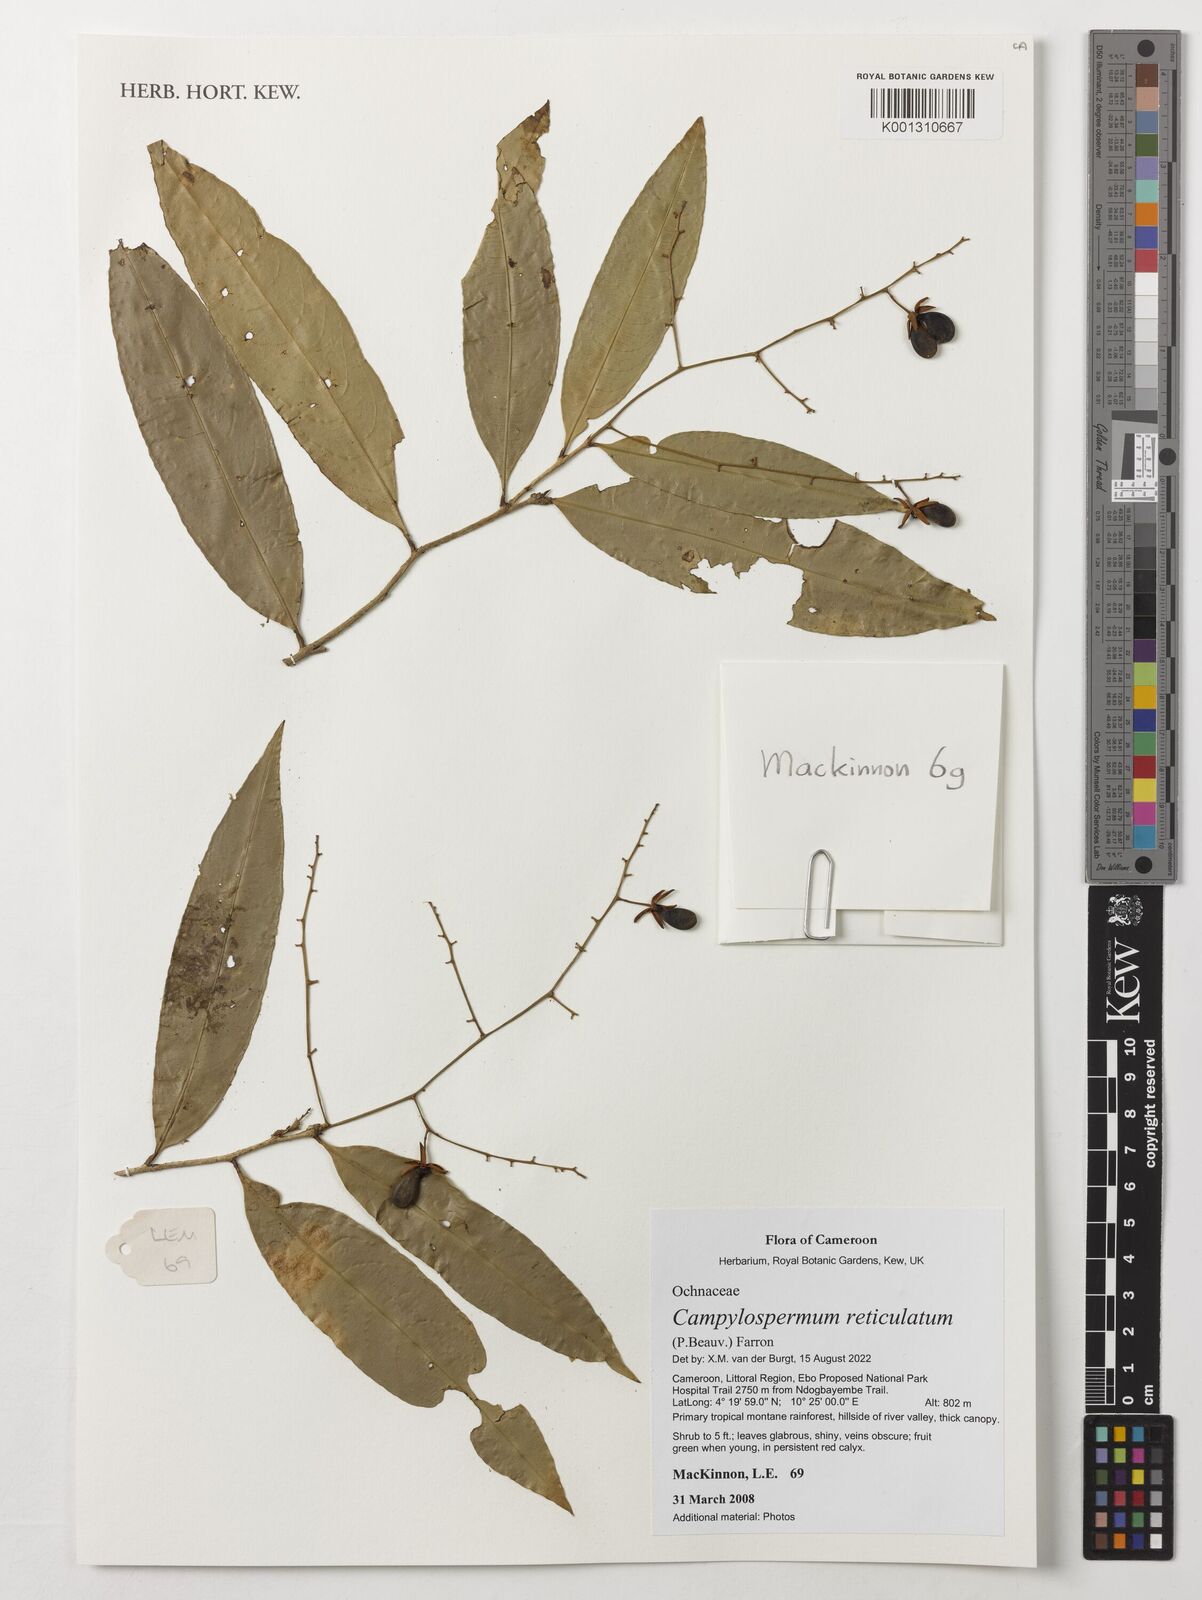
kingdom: Plantae
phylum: Tracheophyta
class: Magnoliopsida
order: Malpighiales
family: Ochnaceae
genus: Campylospermum
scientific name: Campylospermum reticulatum
